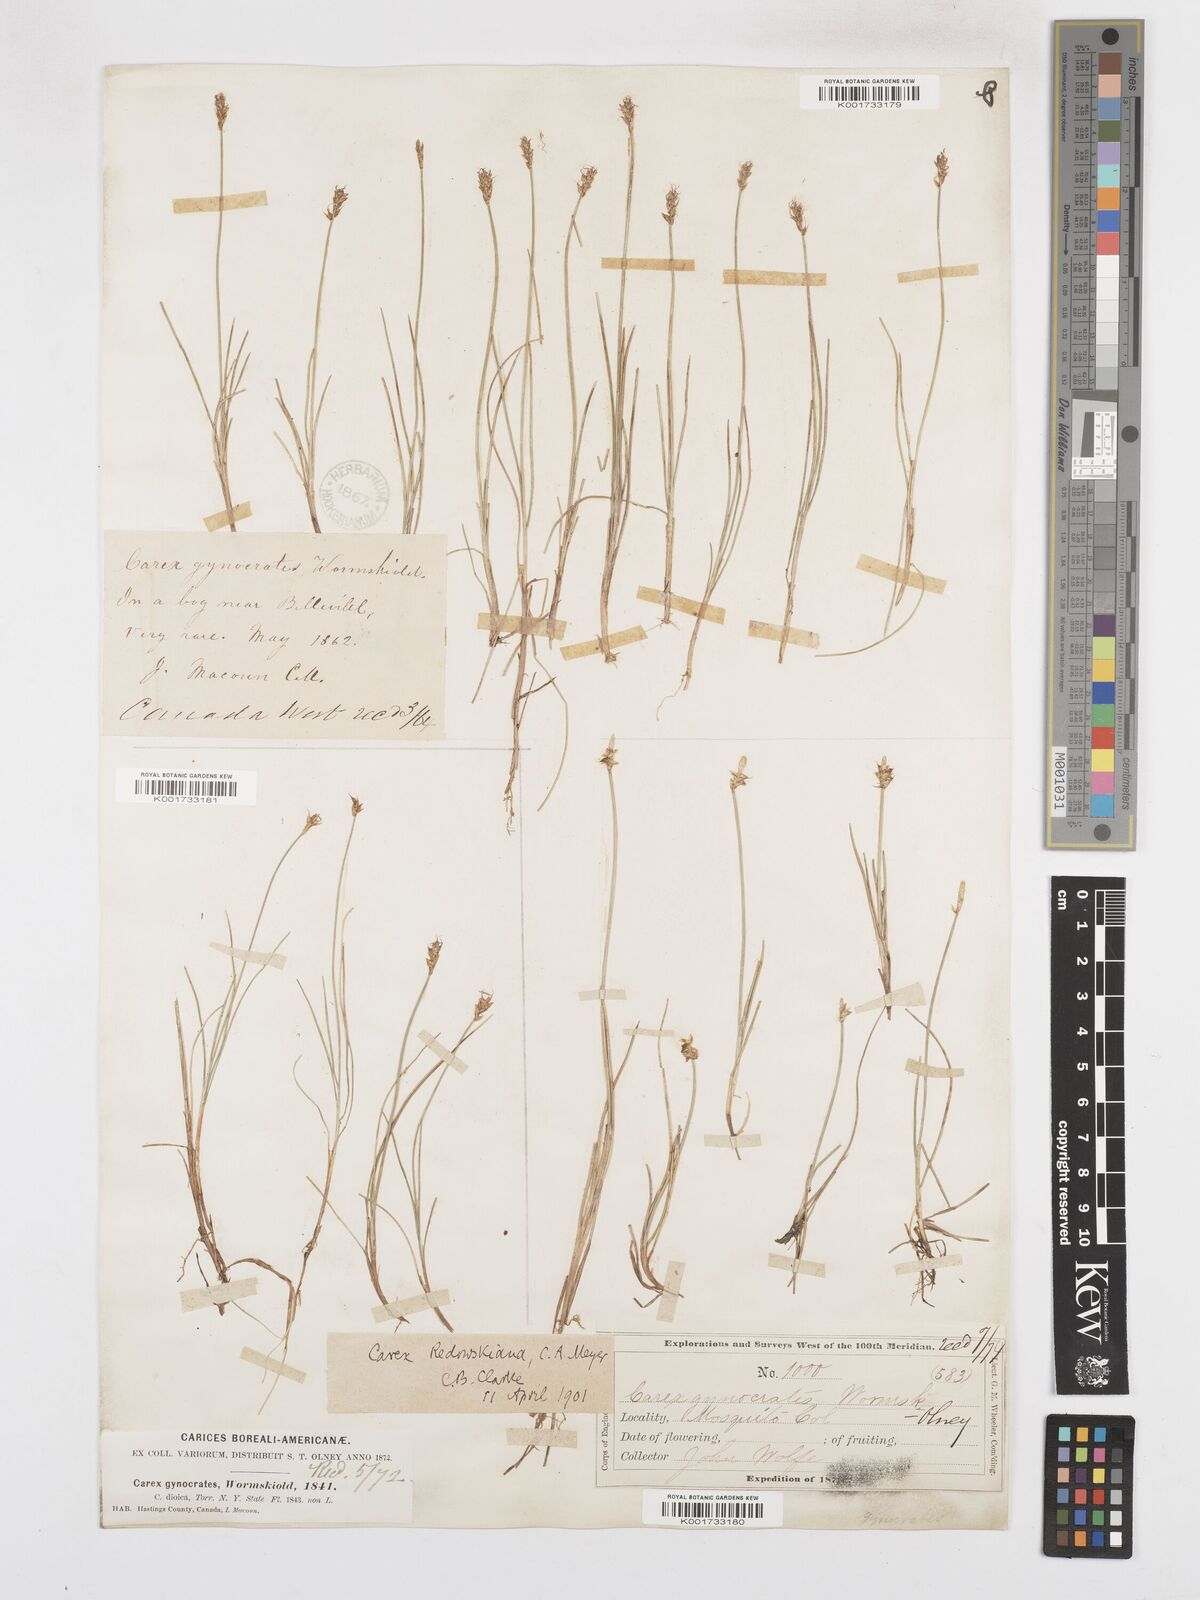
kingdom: Plantae
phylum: Tracheophyta
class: Liliopsida
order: Poales
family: Cyperaceae
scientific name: Cyperaceae
